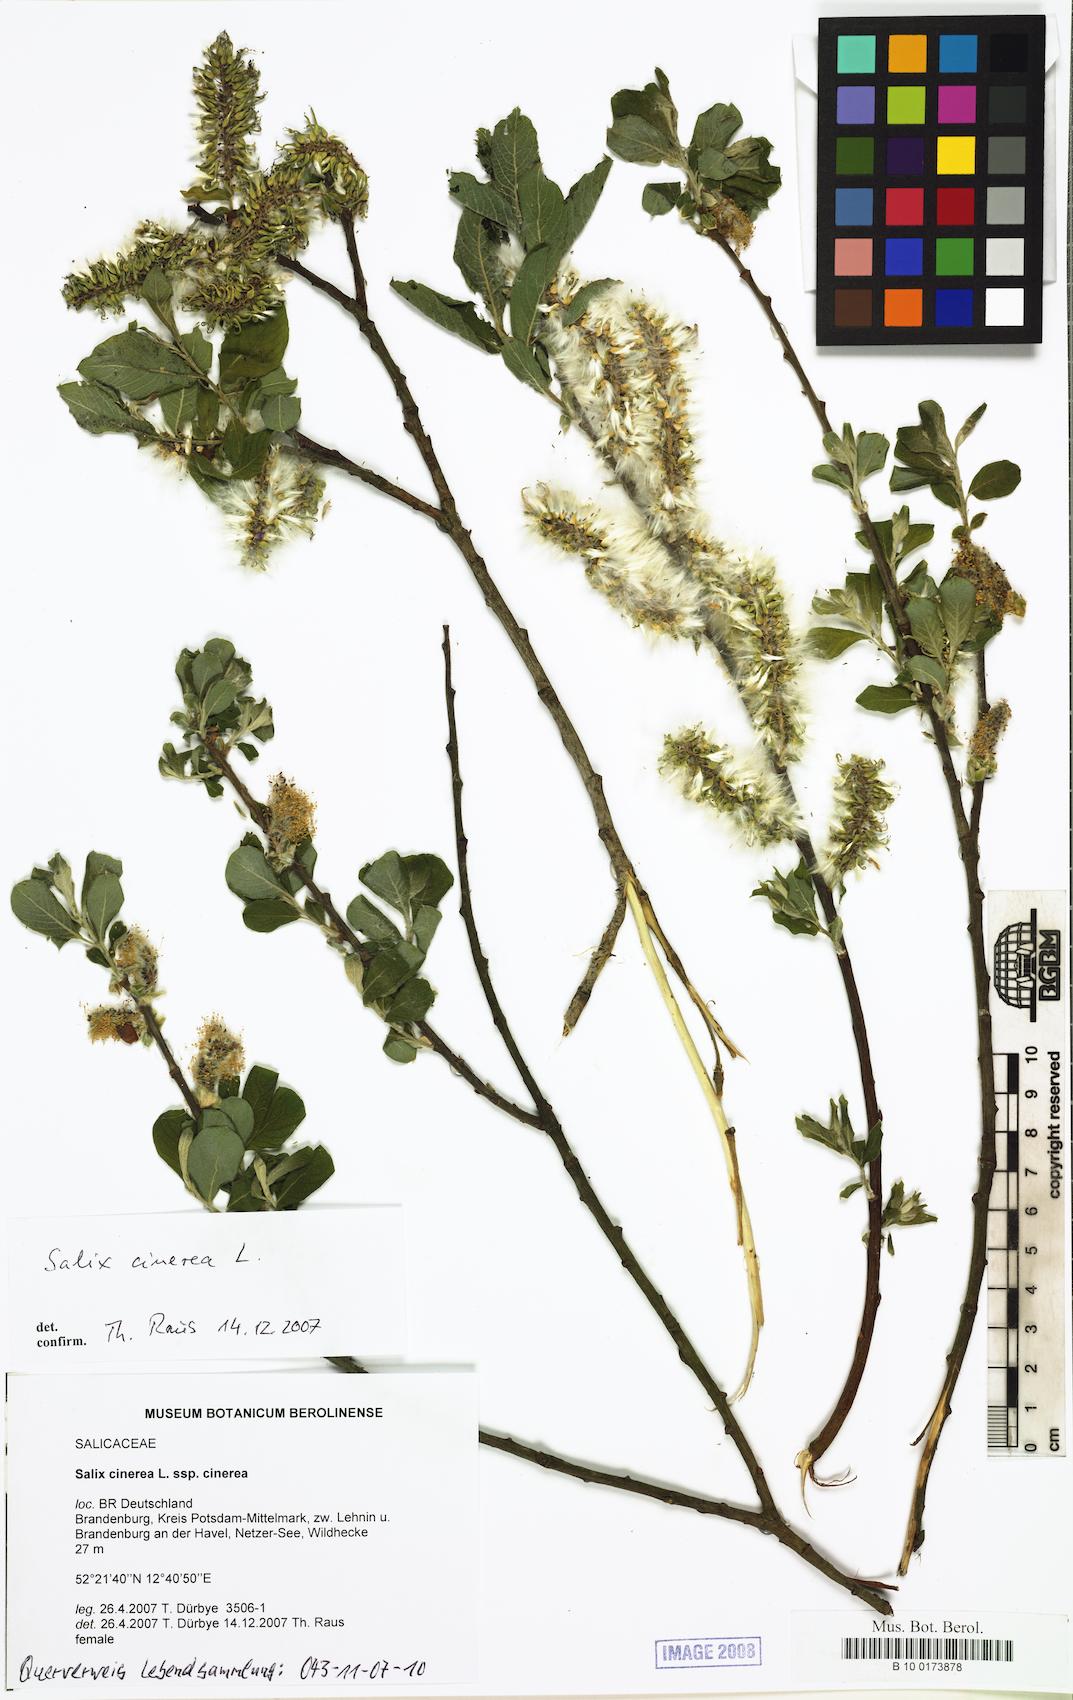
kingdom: Plantae
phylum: Tracheophyta
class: Magnoliopsida
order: Malpighiales
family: Salicaceae
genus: Salix
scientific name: Salix cinerea
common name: Common sallow
